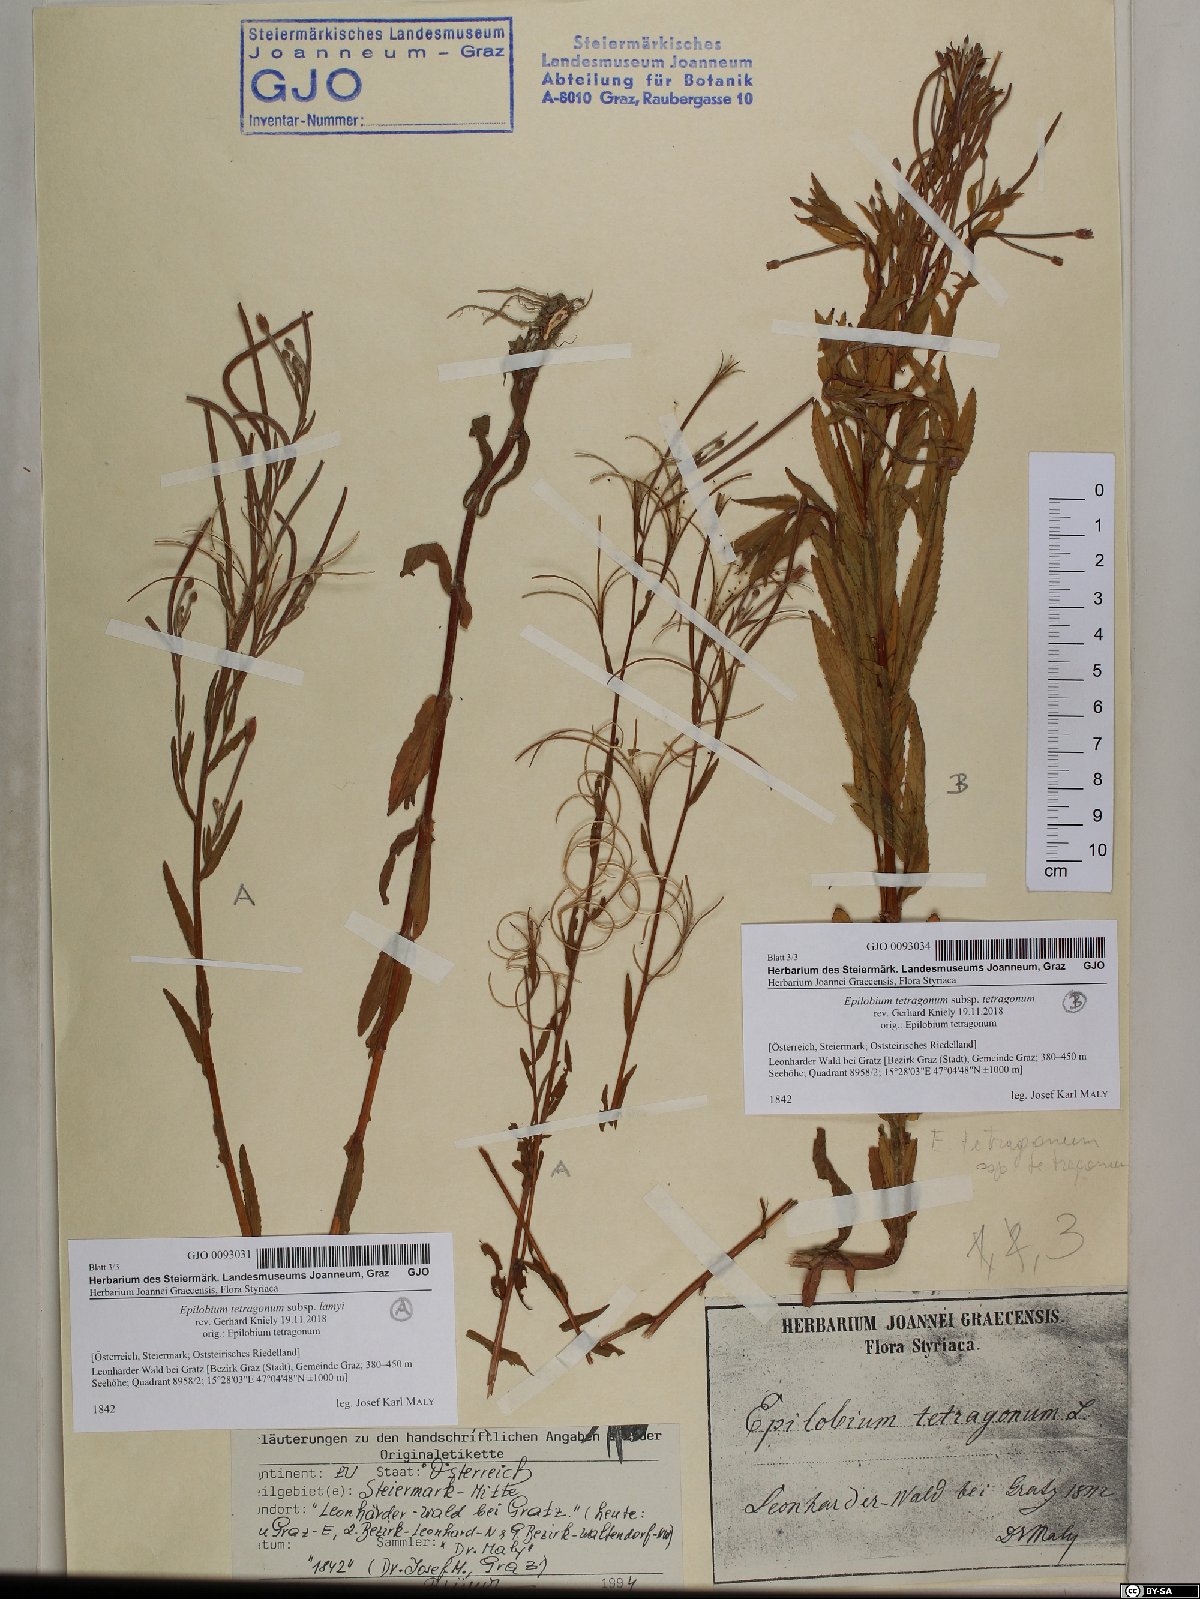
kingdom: Plantae
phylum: Tracheophyta
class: Magnoliopsida
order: Myrtales
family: Onagraceae
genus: Epilobium
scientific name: Epilobium lamyi
